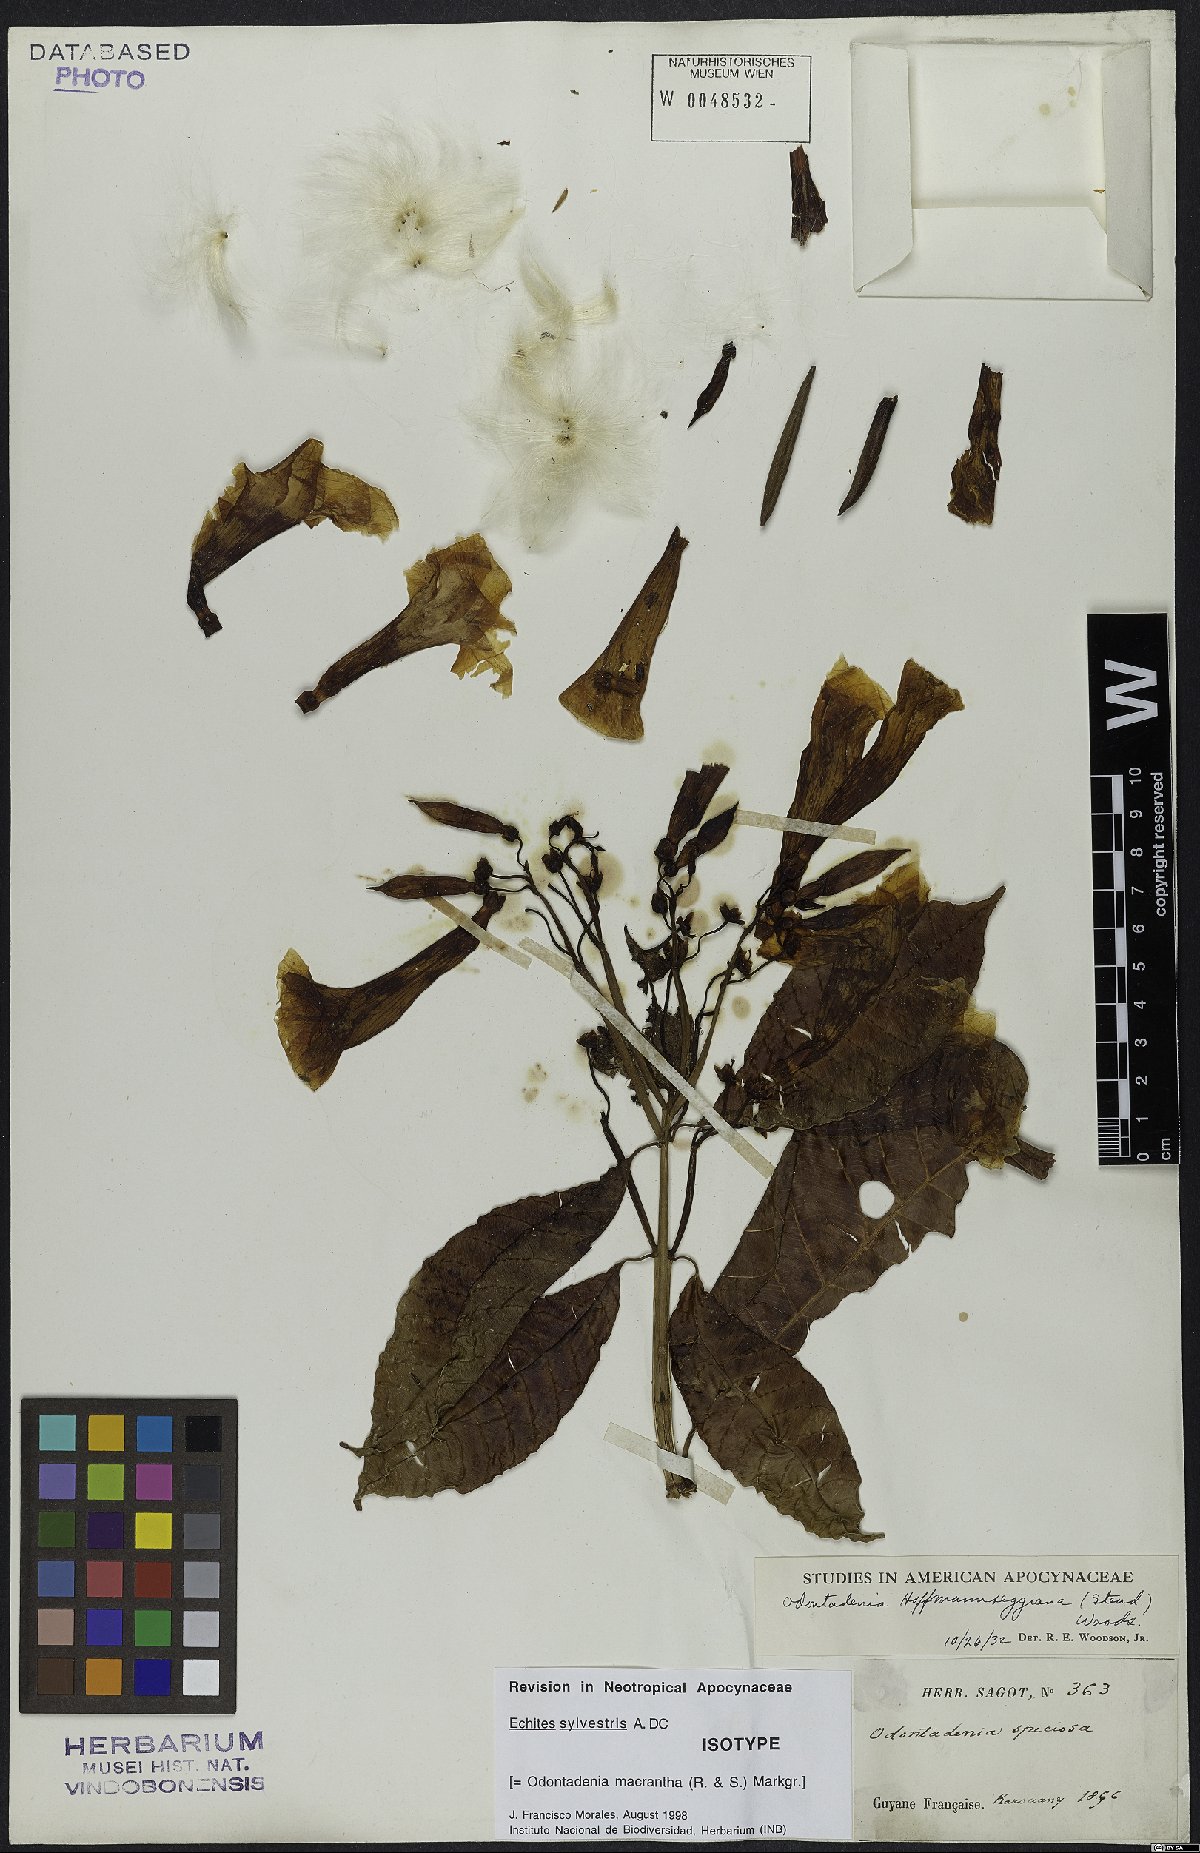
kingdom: Plantae
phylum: Tracheophyta
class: Magnoliopsida
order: Gentianales
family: Apocynaceae
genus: Odontadenia
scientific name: Odontadenia semidigyna
